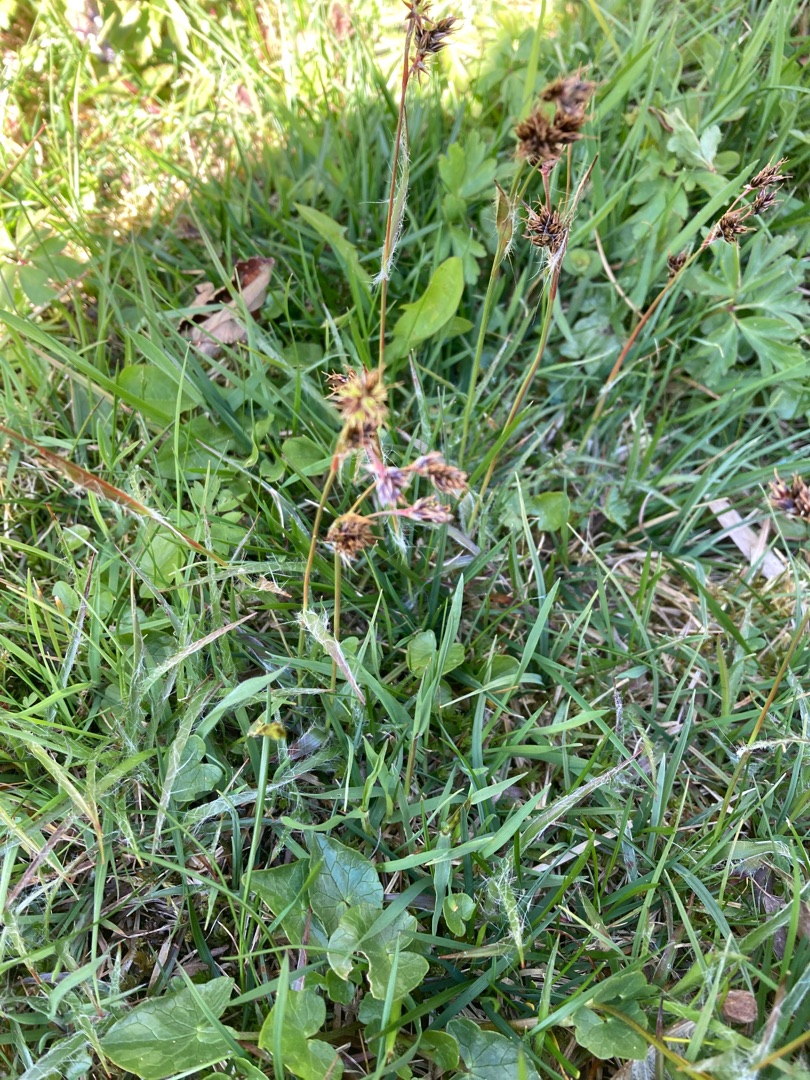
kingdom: Plantae
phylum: Tracheophyta
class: Liliopsida
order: Poales
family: Juncaceae
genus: Luzula
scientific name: Luzula campestris
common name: Mark-frytle
